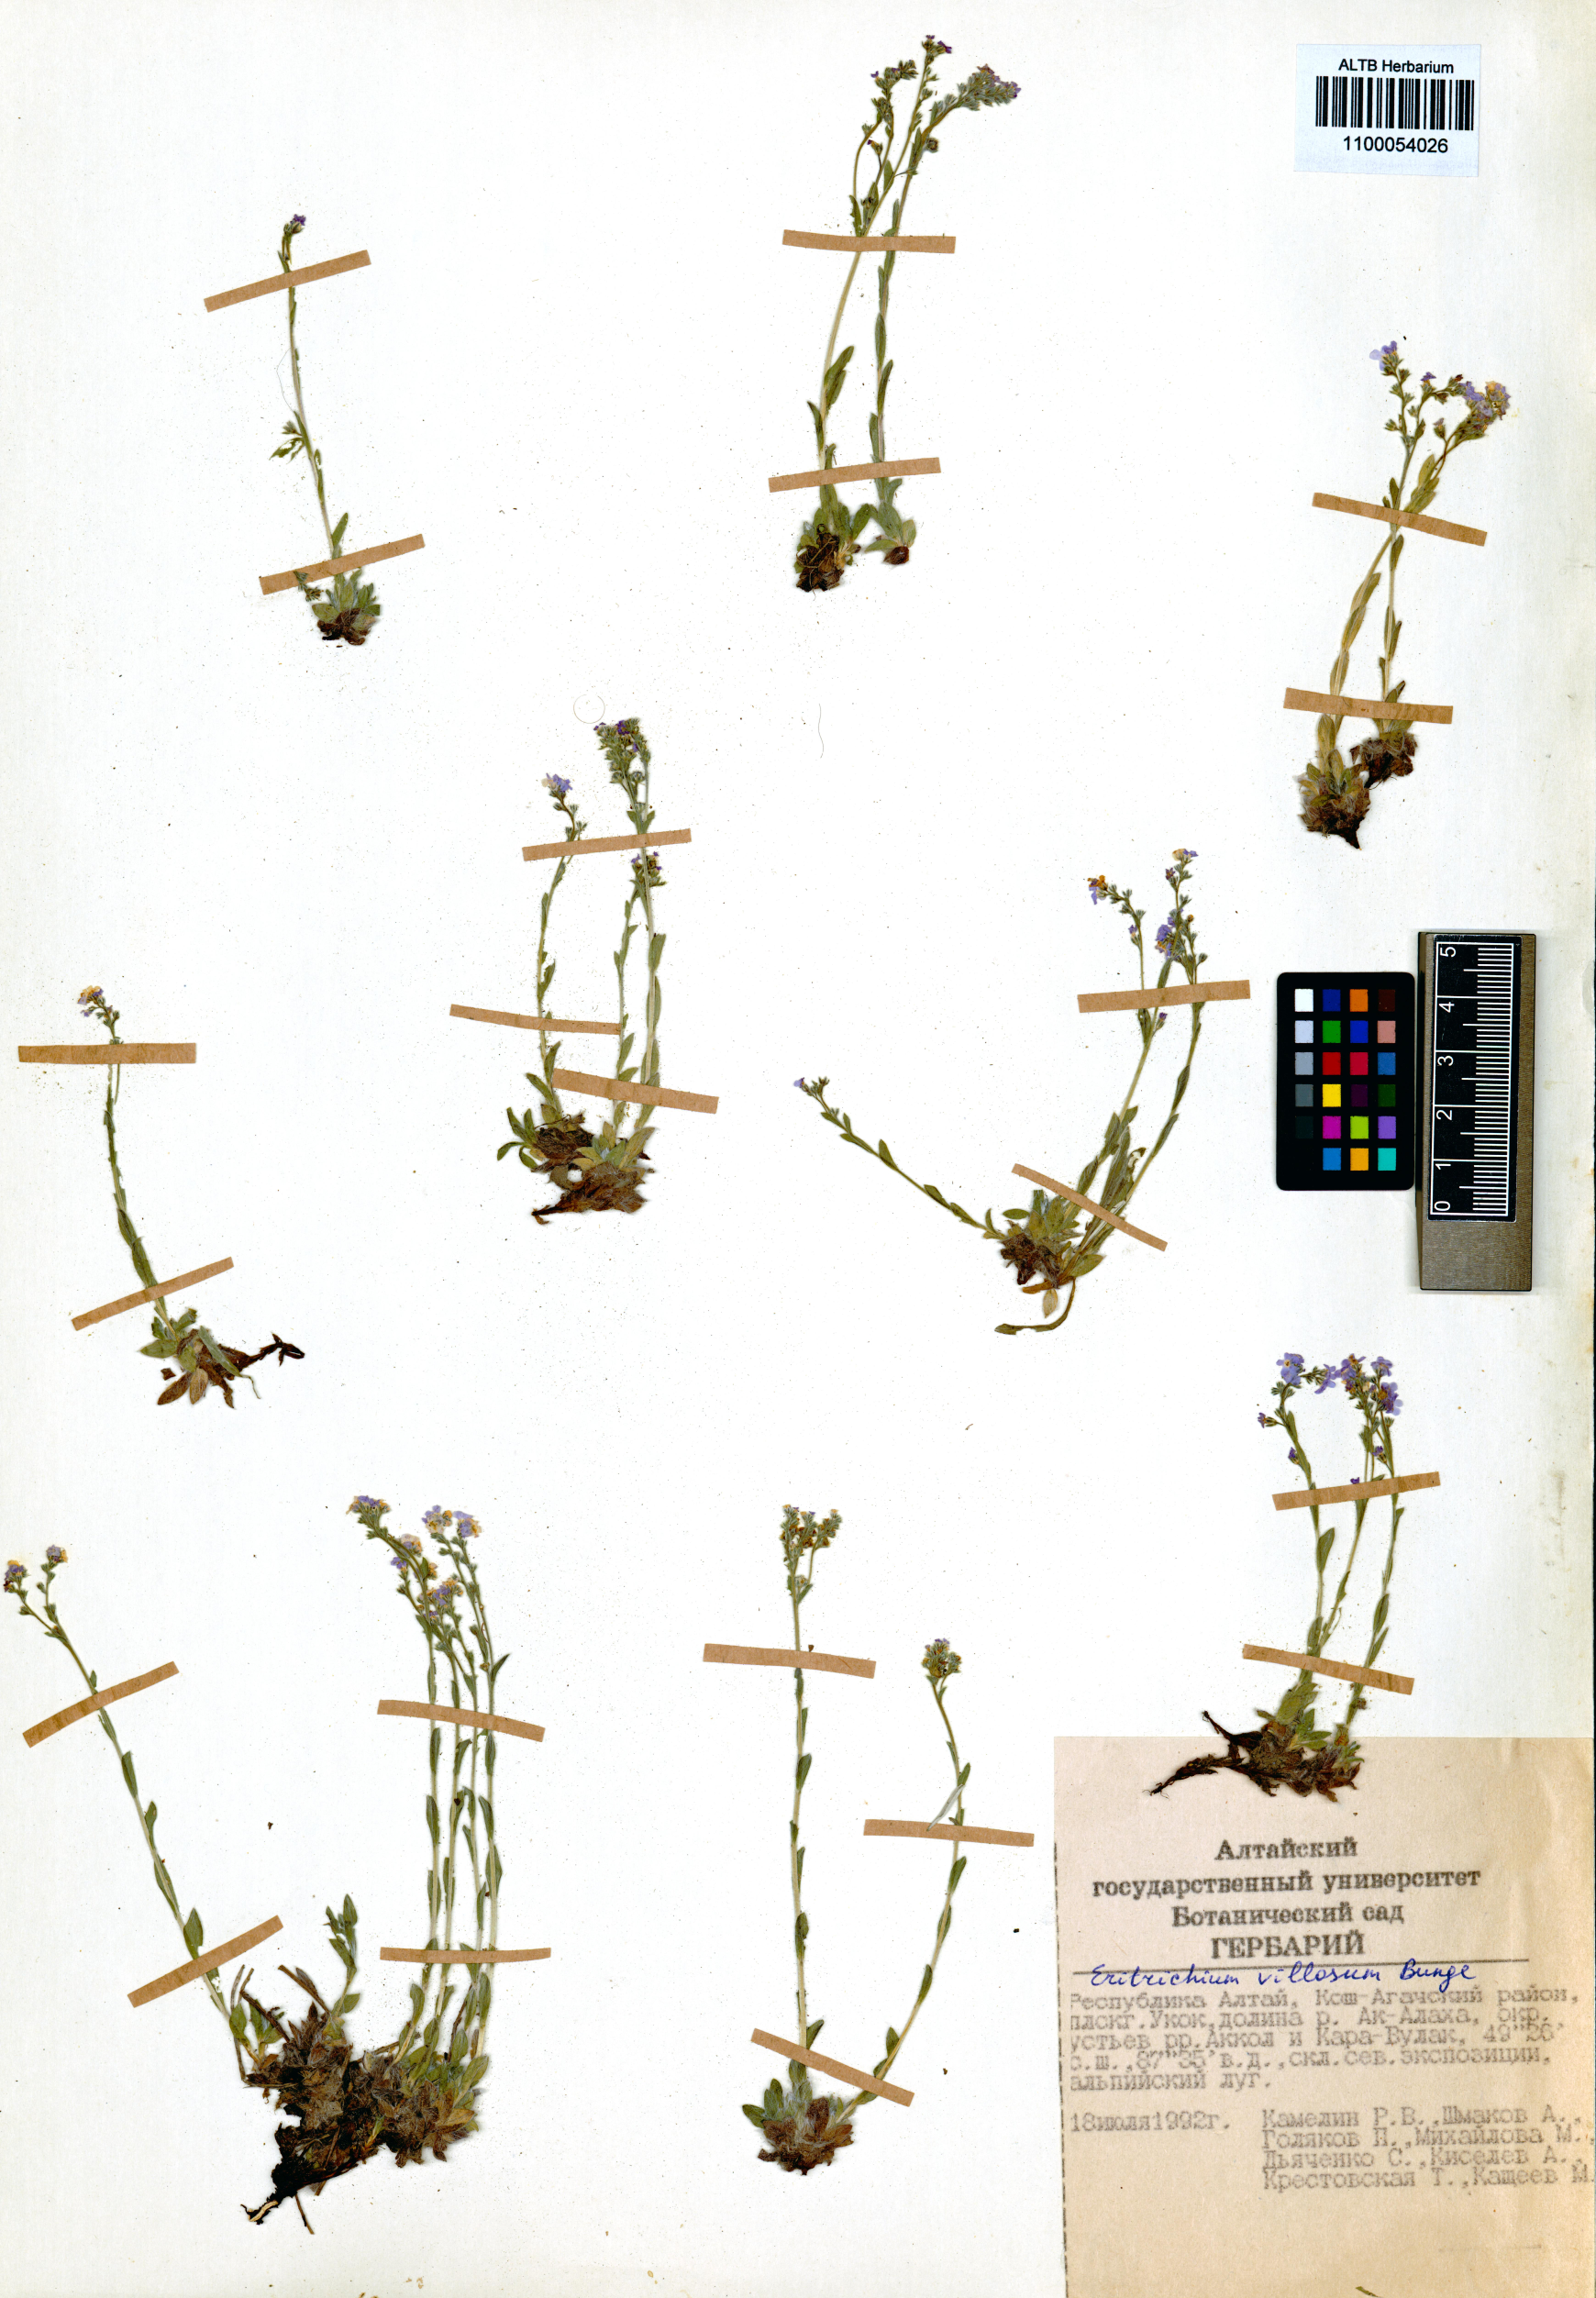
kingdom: Plantae
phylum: Tracheophyta
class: Magnoliopsida
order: Boraginales
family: Boraginaceae
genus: Eritrichium
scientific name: Eritrichium villosum
